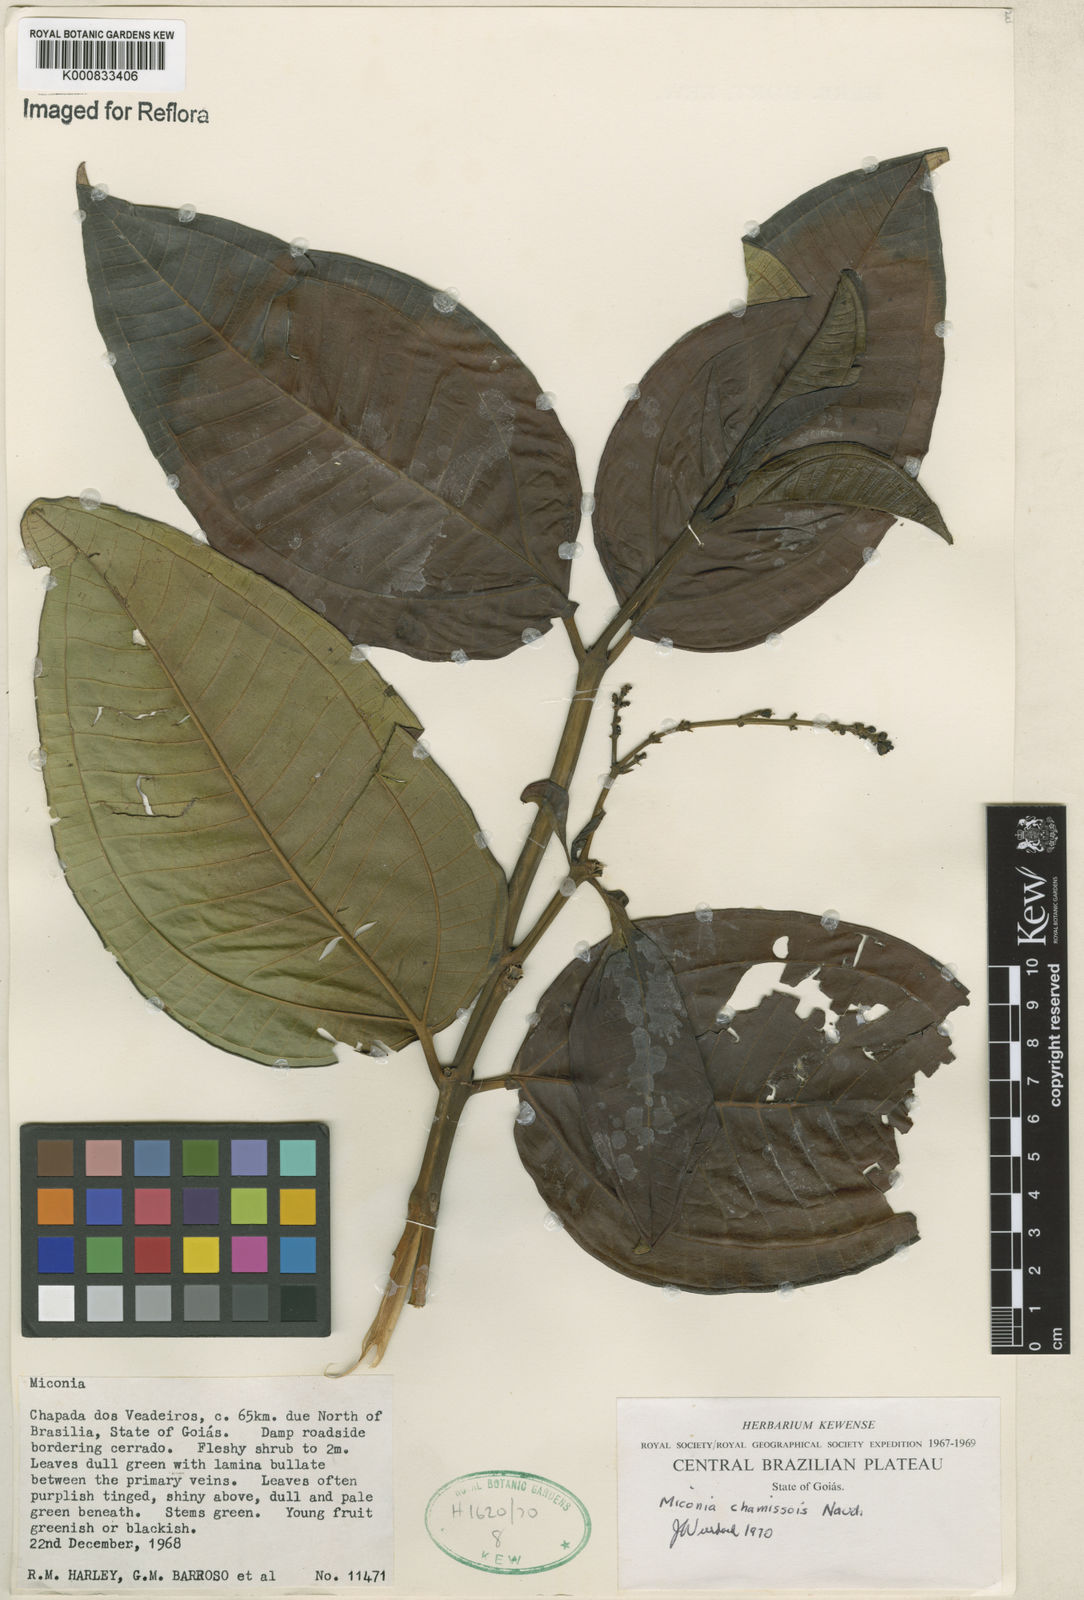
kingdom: Plantae
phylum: Tracheophyta
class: Magnoliopsida
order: Myrtales
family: Melastomataceae
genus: Miconia
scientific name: Miconia chamissois
